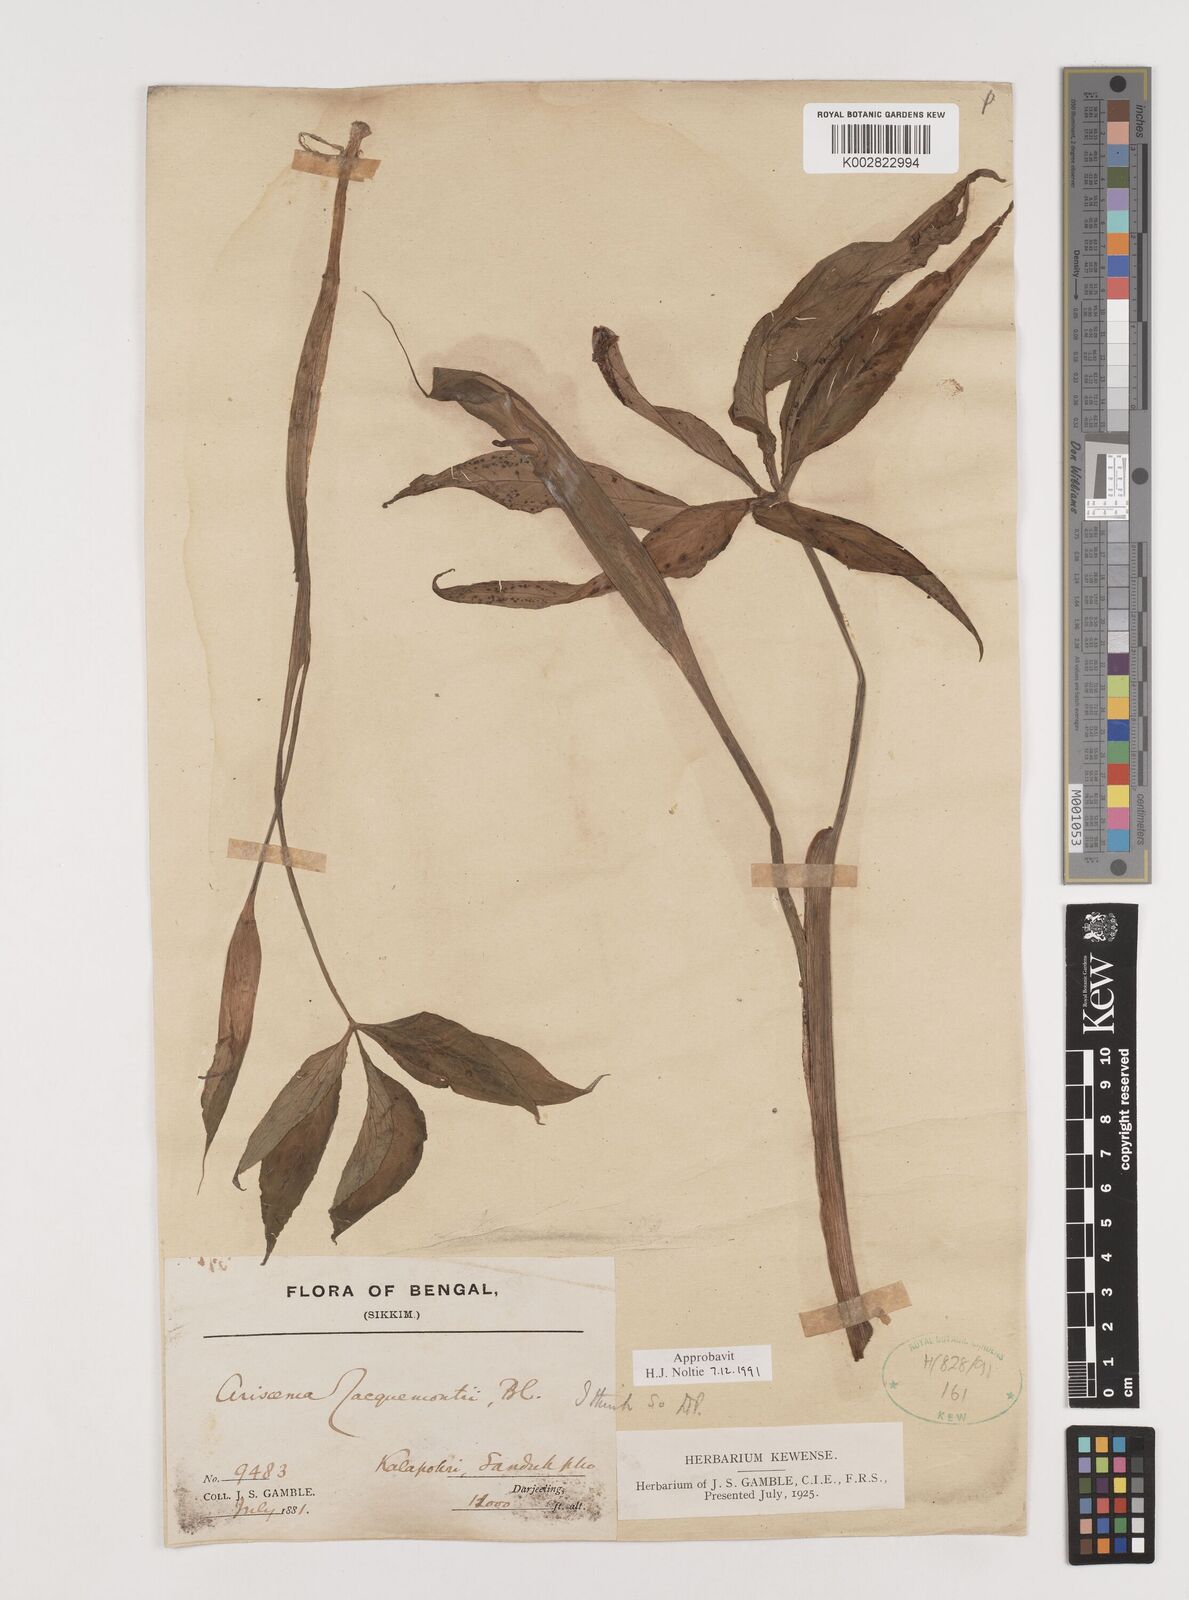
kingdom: Plantae
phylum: Tracheophyta
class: Liliopsida
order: Alismatales
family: Araceae
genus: Arisaema
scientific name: Arisaema jacquemontii
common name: Jacquemont's cobra-lily
